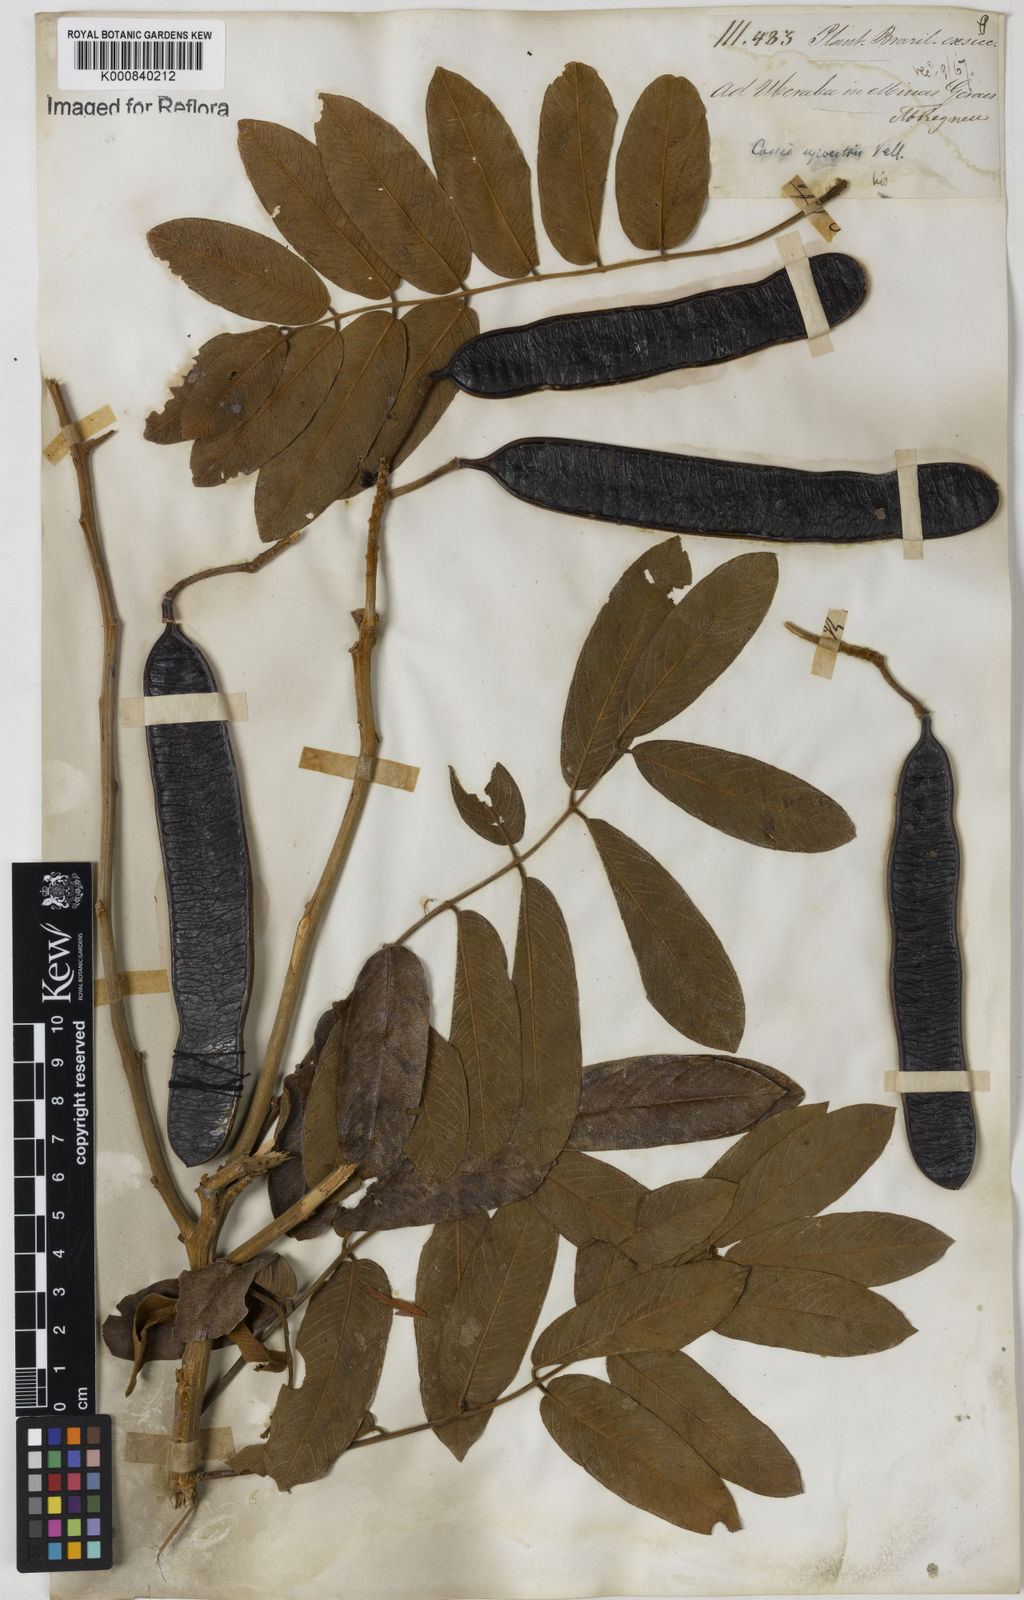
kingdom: Plantae
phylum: Tracheophyta
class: Magnoliopsida
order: Fabales
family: Fabaceae
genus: Senna
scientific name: Senna silvestris
